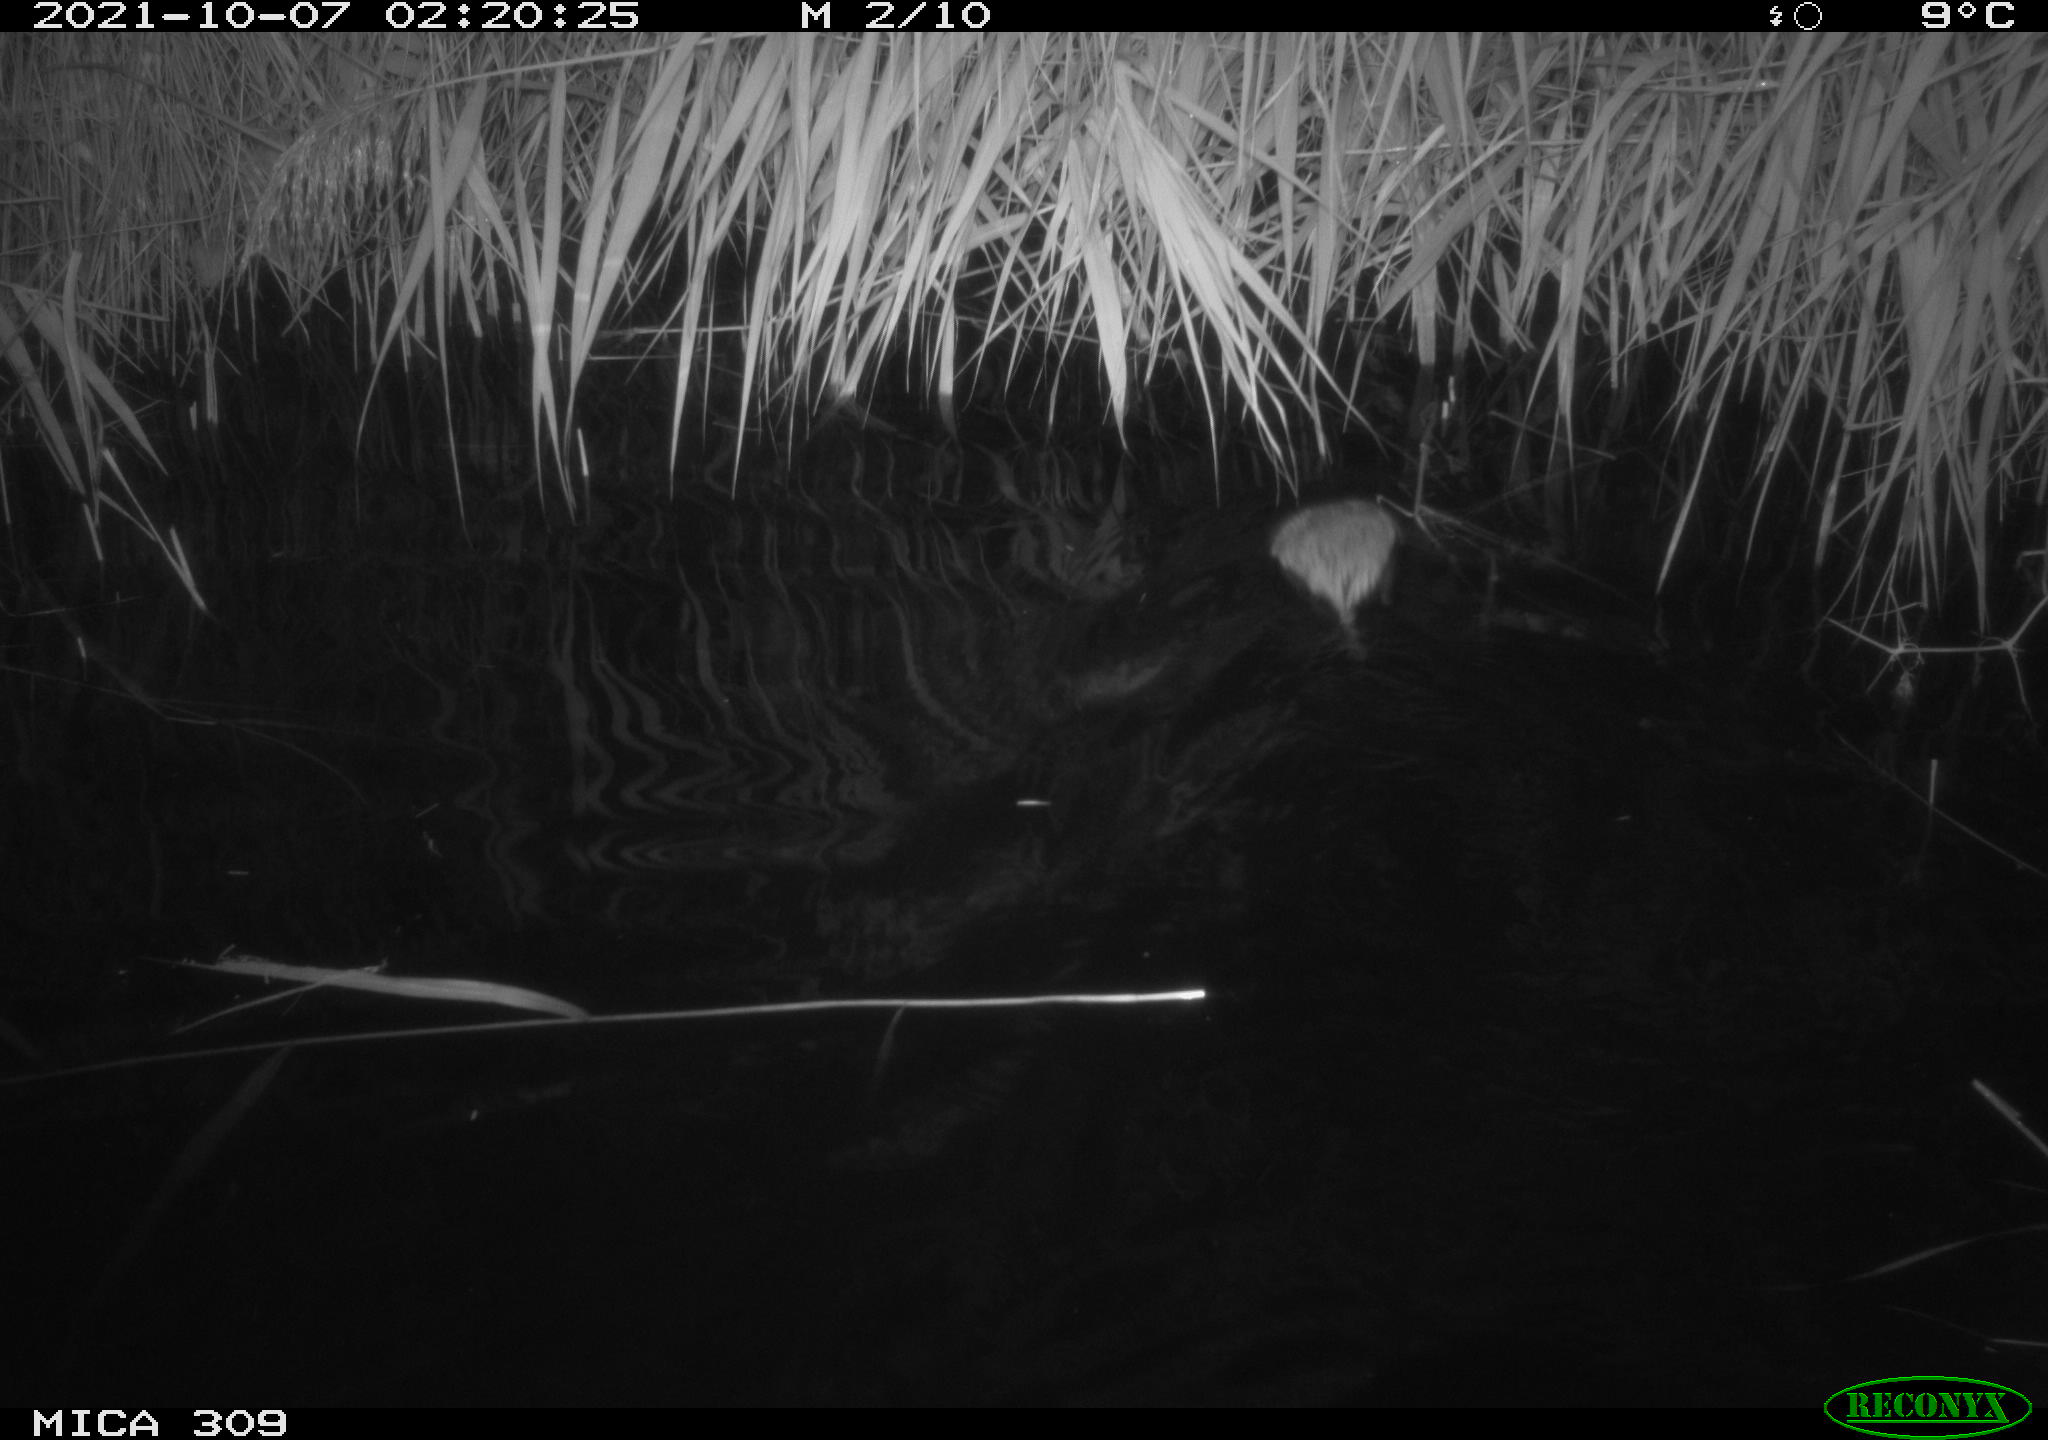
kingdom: Animalia
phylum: Chordata
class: Mammalia
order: Rodentia
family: Cricetidae
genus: Ondatra
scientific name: Ondatra zibethicus
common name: Muskrat
